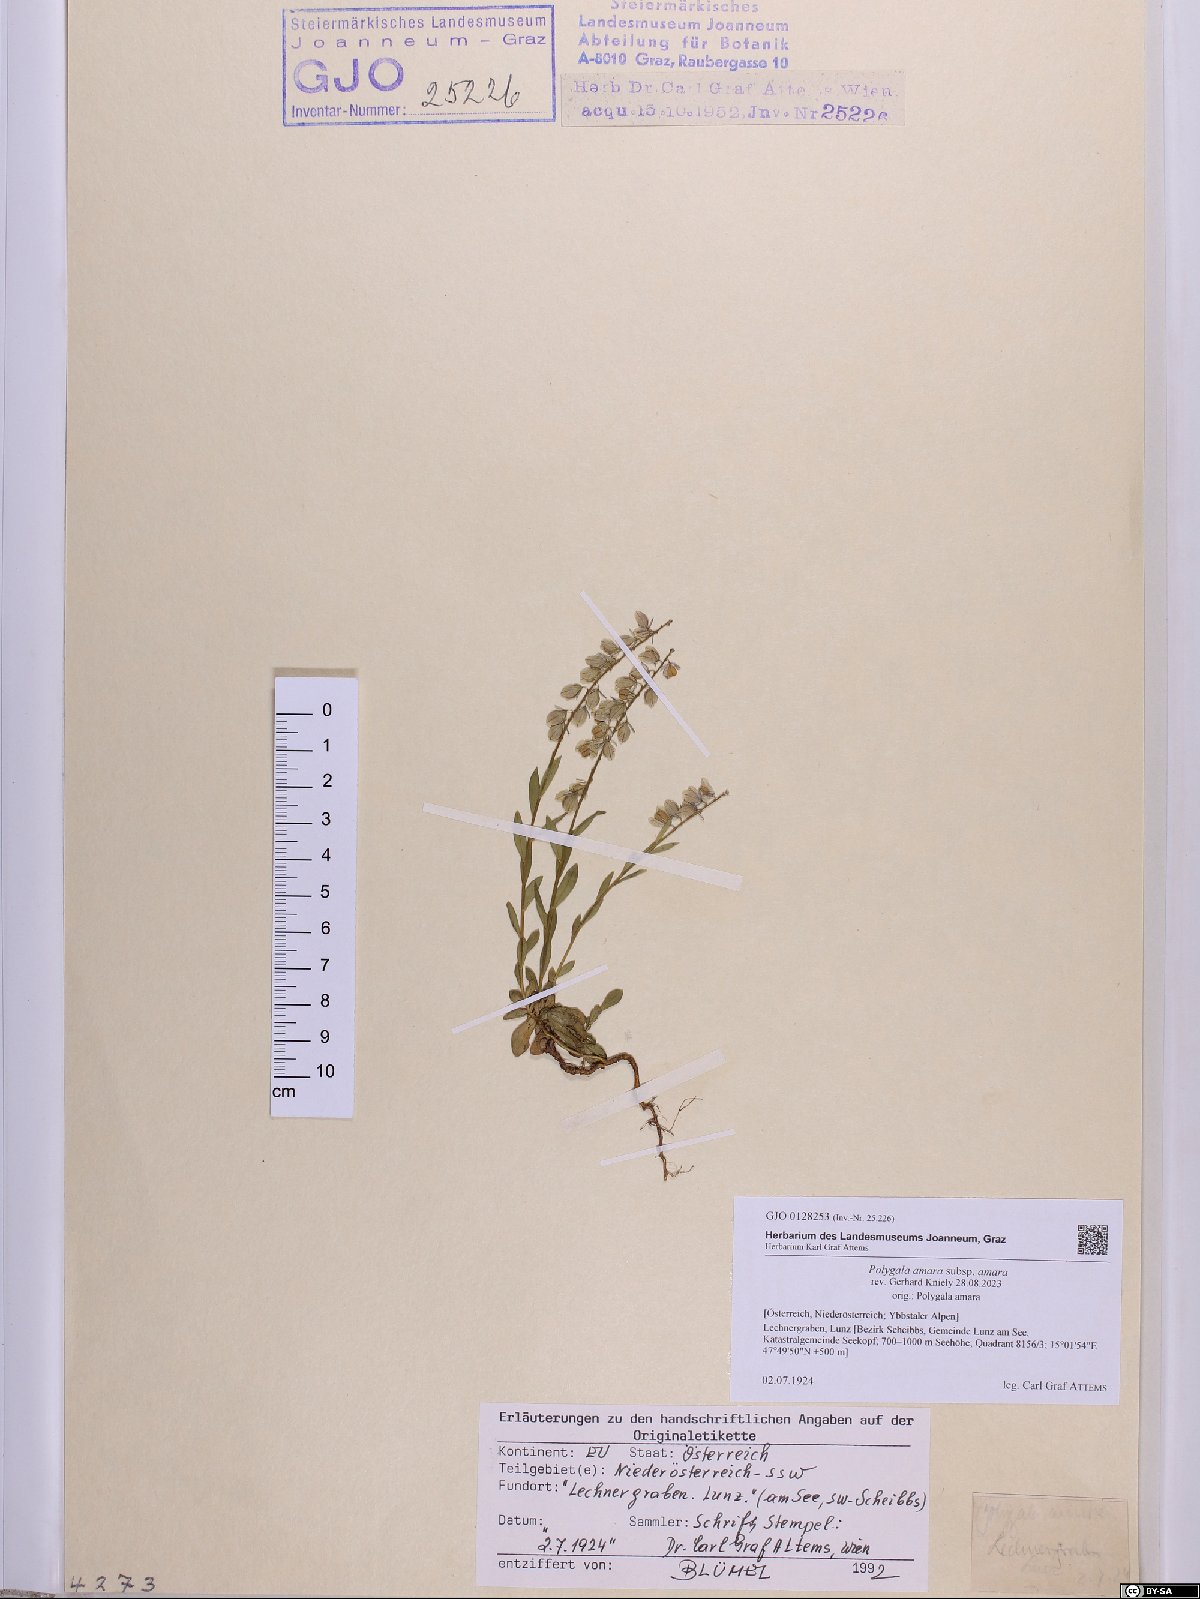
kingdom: Plantae
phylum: Tracheophyta
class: Magnoliopsida
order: Fabales
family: Polygalaceae
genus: Polygala
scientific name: Polygala amara
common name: Milkwort
